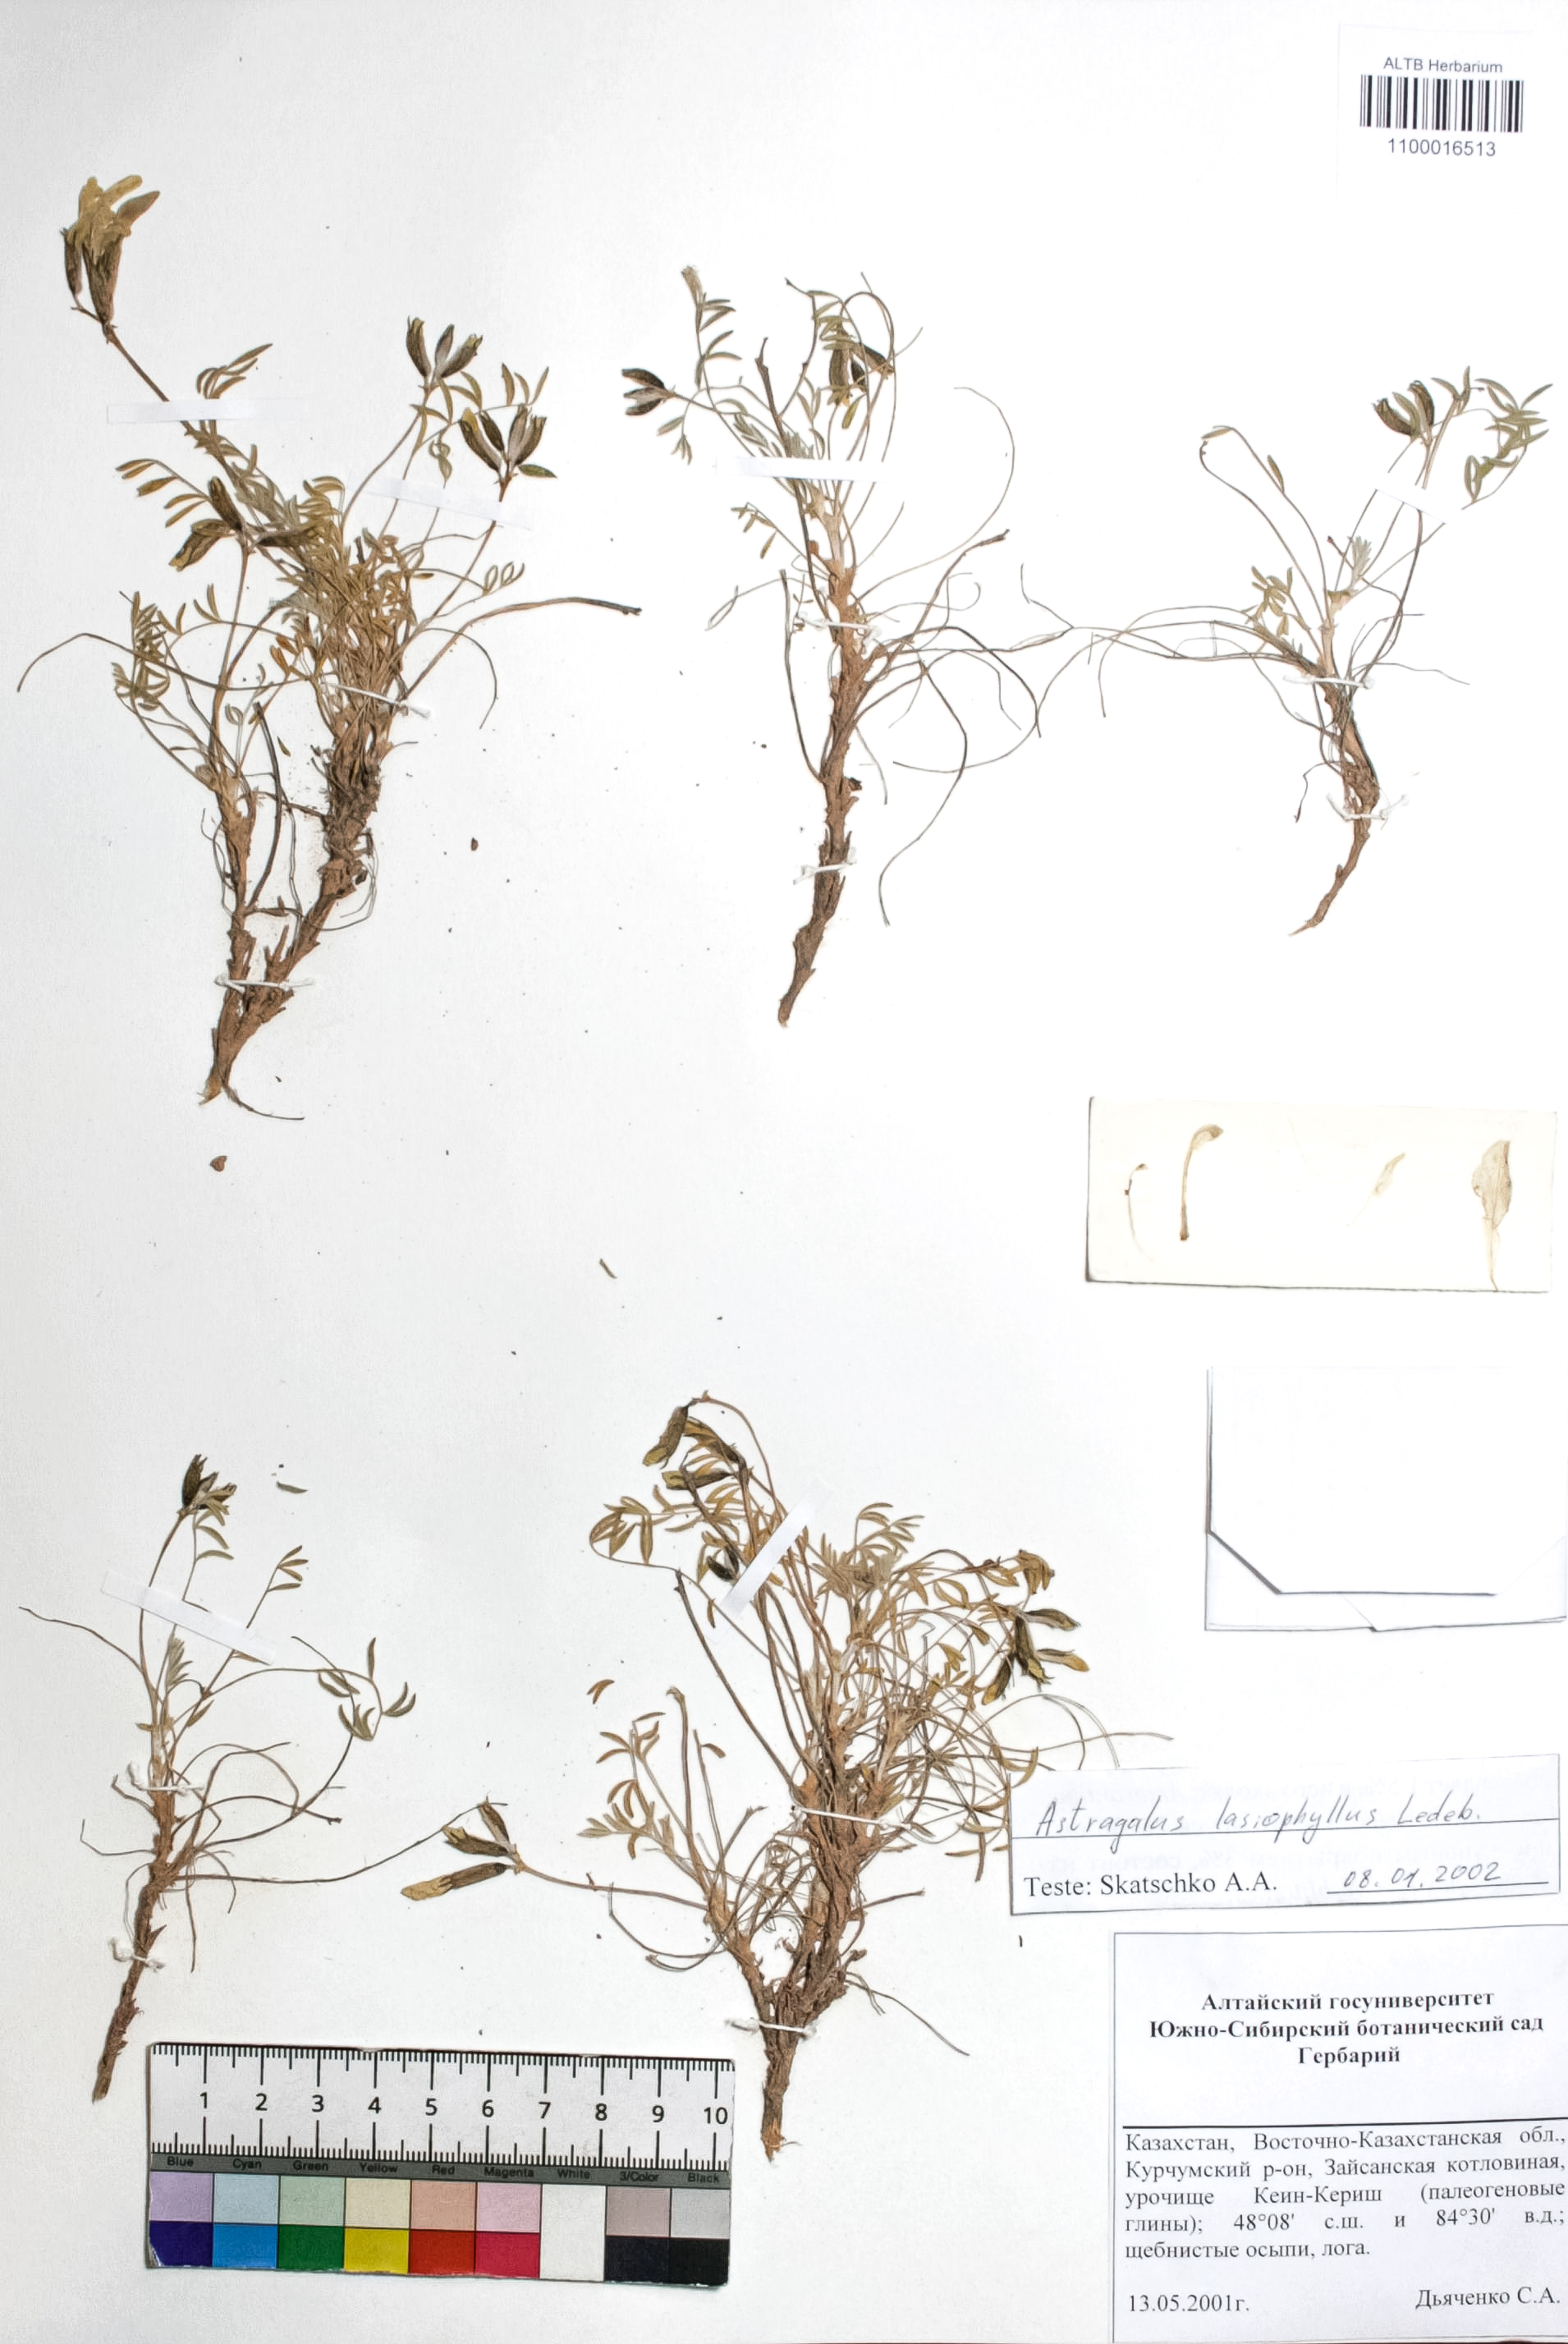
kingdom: Plantae
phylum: Tracheophyta
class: Magnoliopsida
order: Fabales
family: Fabaceae
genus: Astragalus
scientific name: Astragalus pallasii
